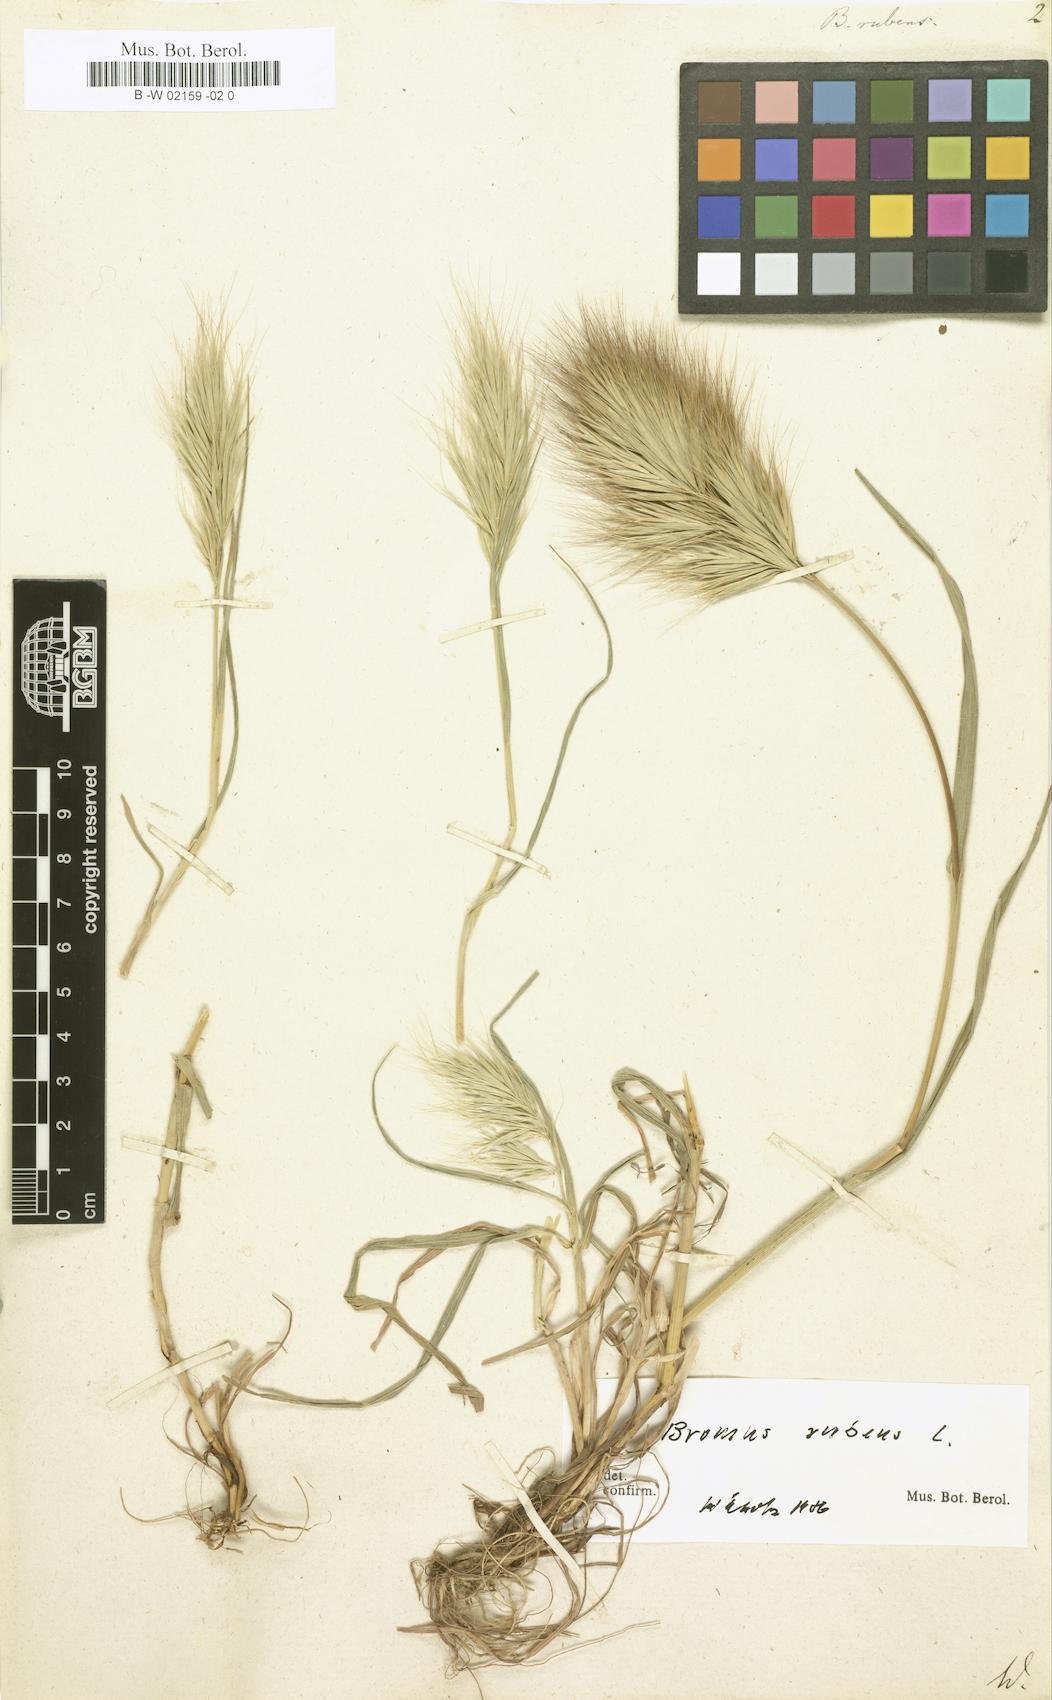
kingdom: Plantae
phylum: Tracheophyta
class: Liliopsida
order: Poales
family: Poaceae
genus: Bromus
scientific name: Bromus rubens
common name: Red brome
